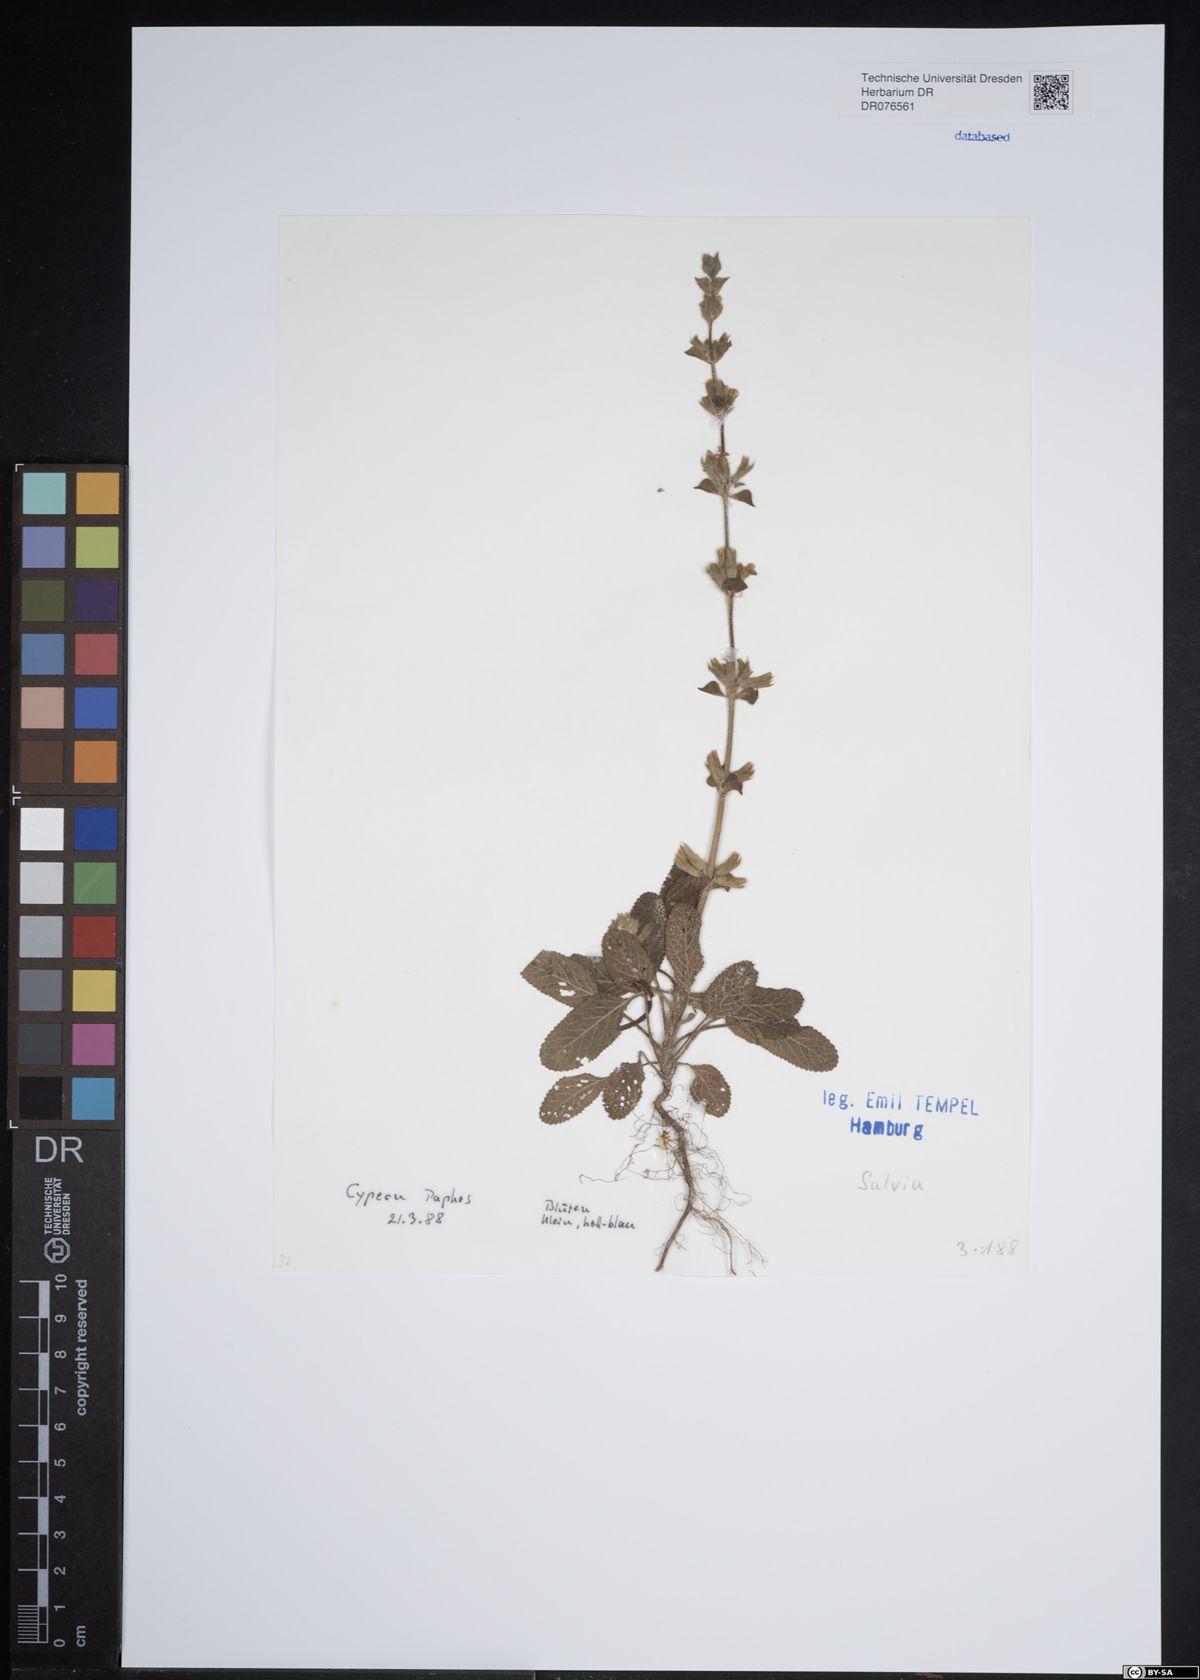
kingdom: Plantae
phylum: Tracheophyta
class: Magnoliopsida
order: Lamiales
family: Lamiaceae
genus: Salvia
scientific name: Salvia
